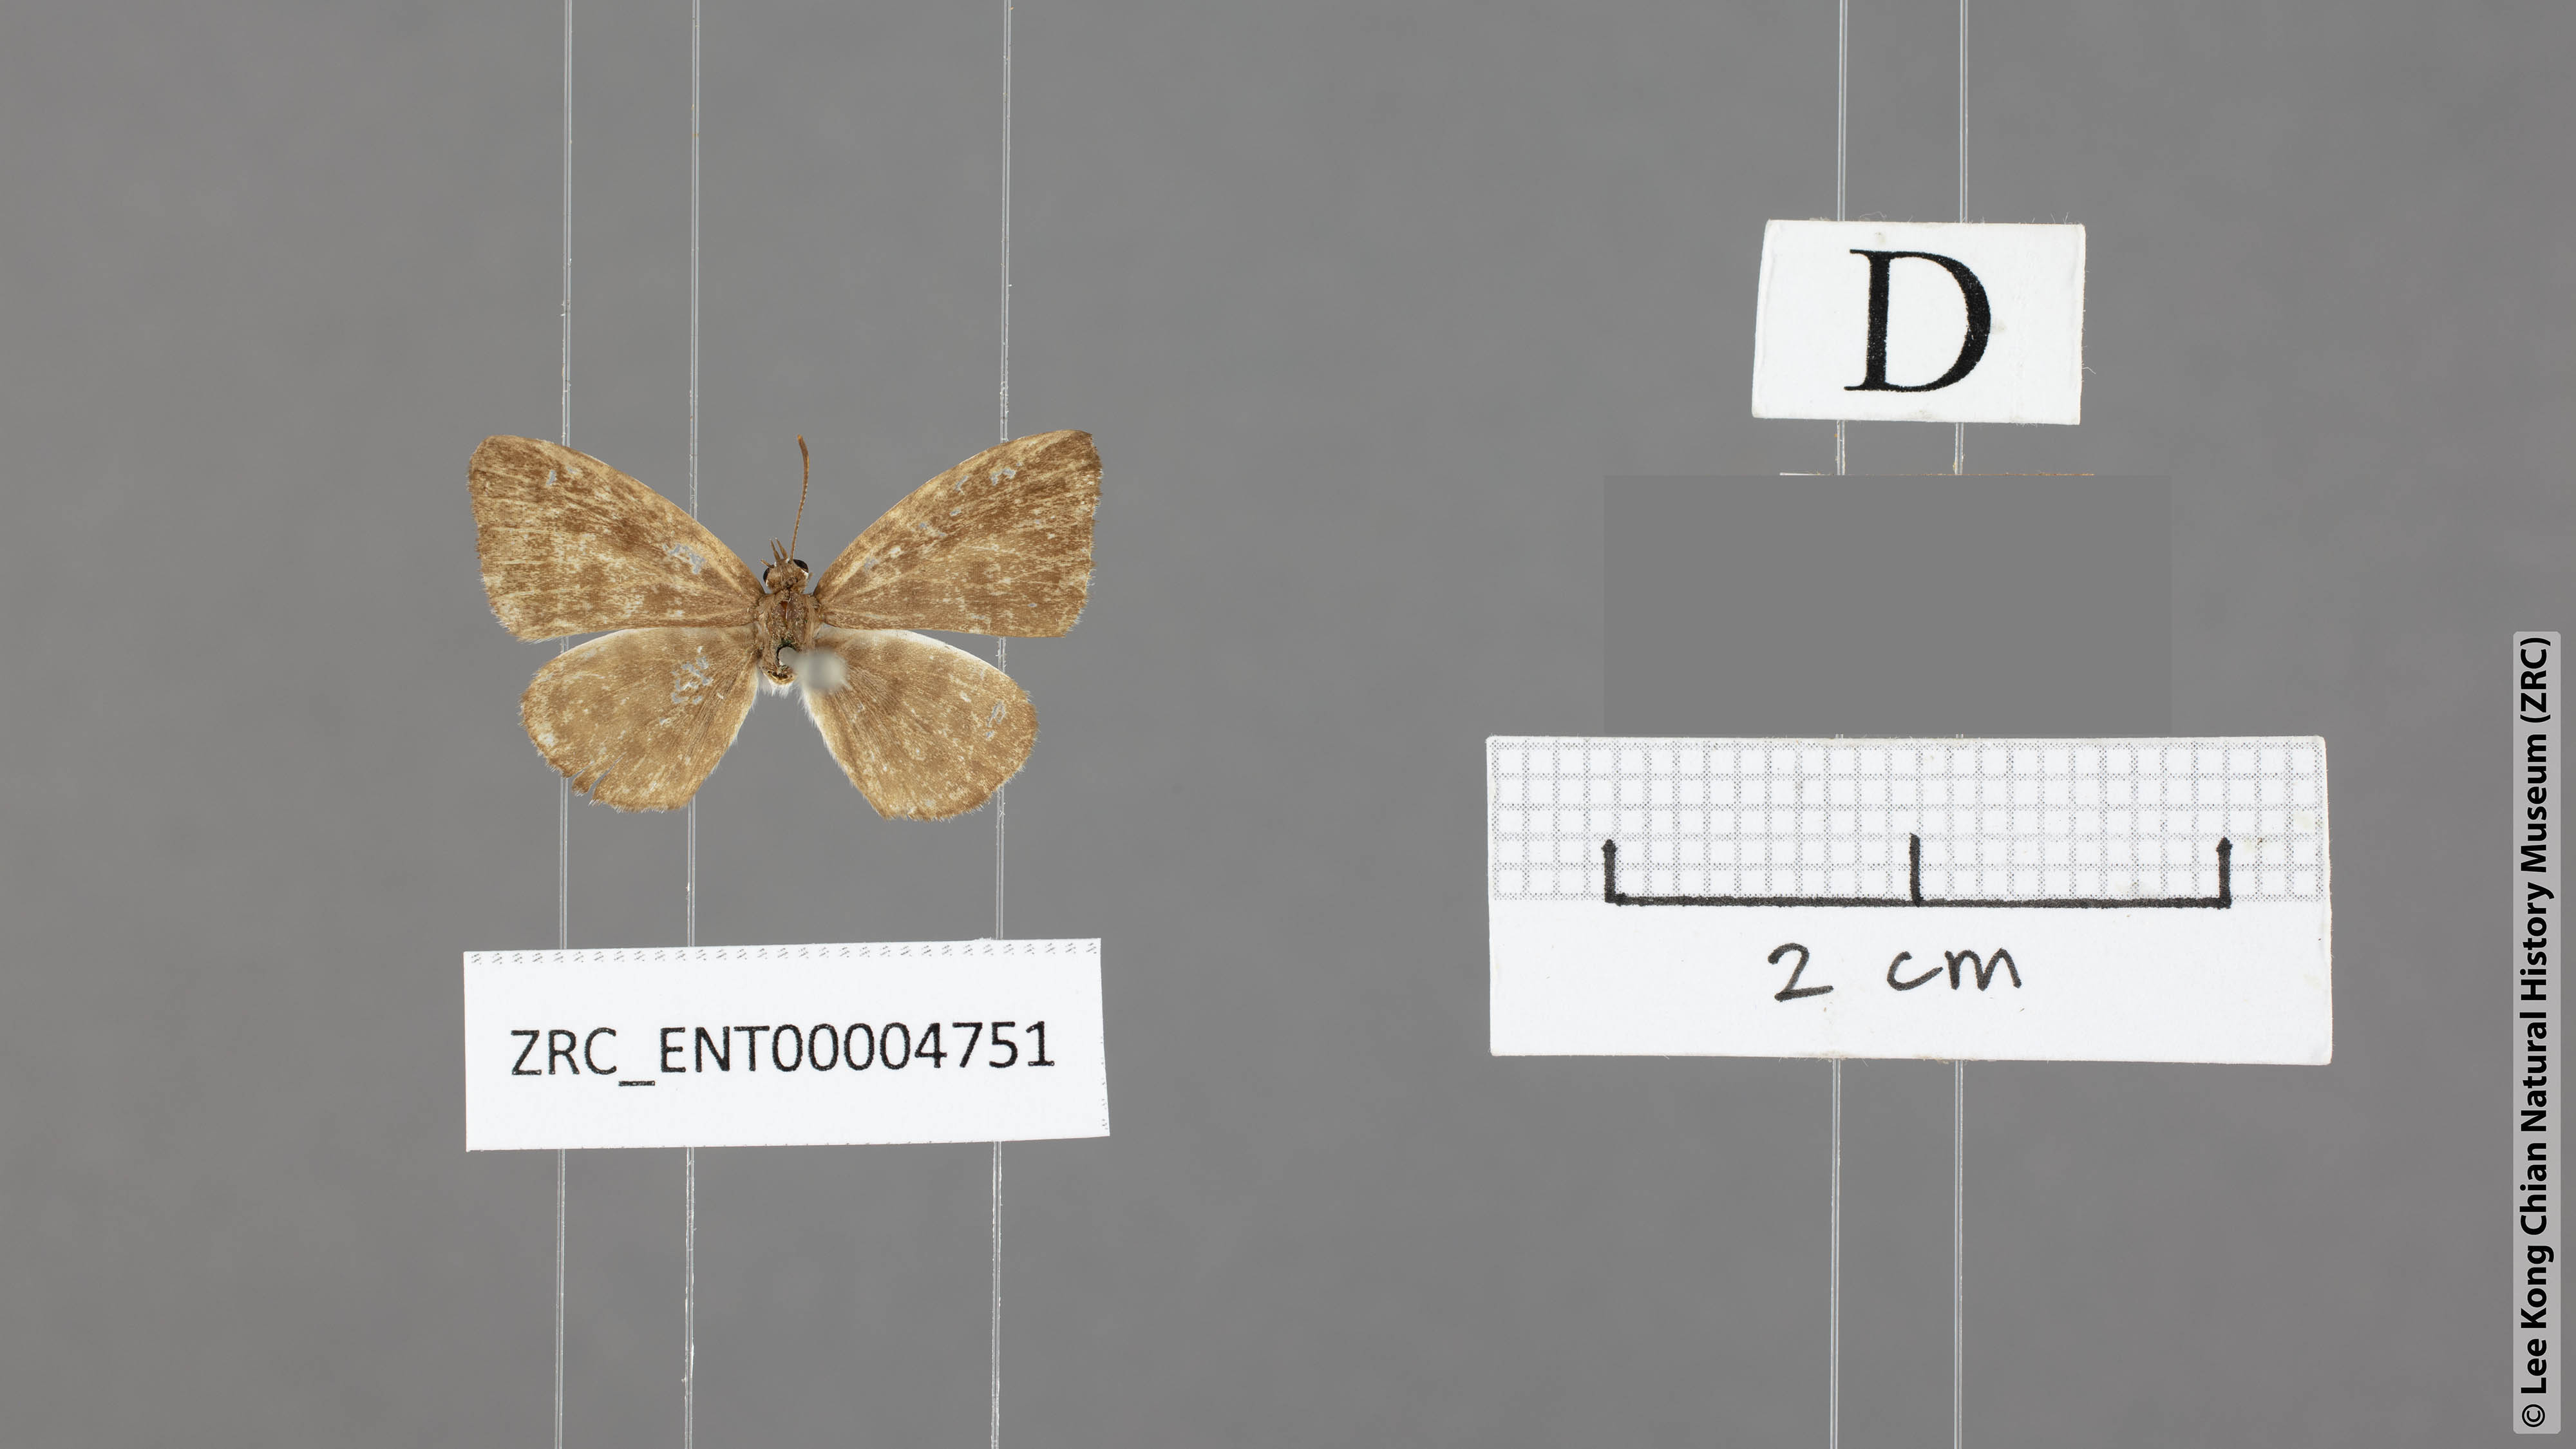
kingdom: Animalia
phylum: Arthropoda
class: Insecta
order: Lepidoptera
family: Lycaenidae
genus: Taraka
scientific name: Taraka hamada
